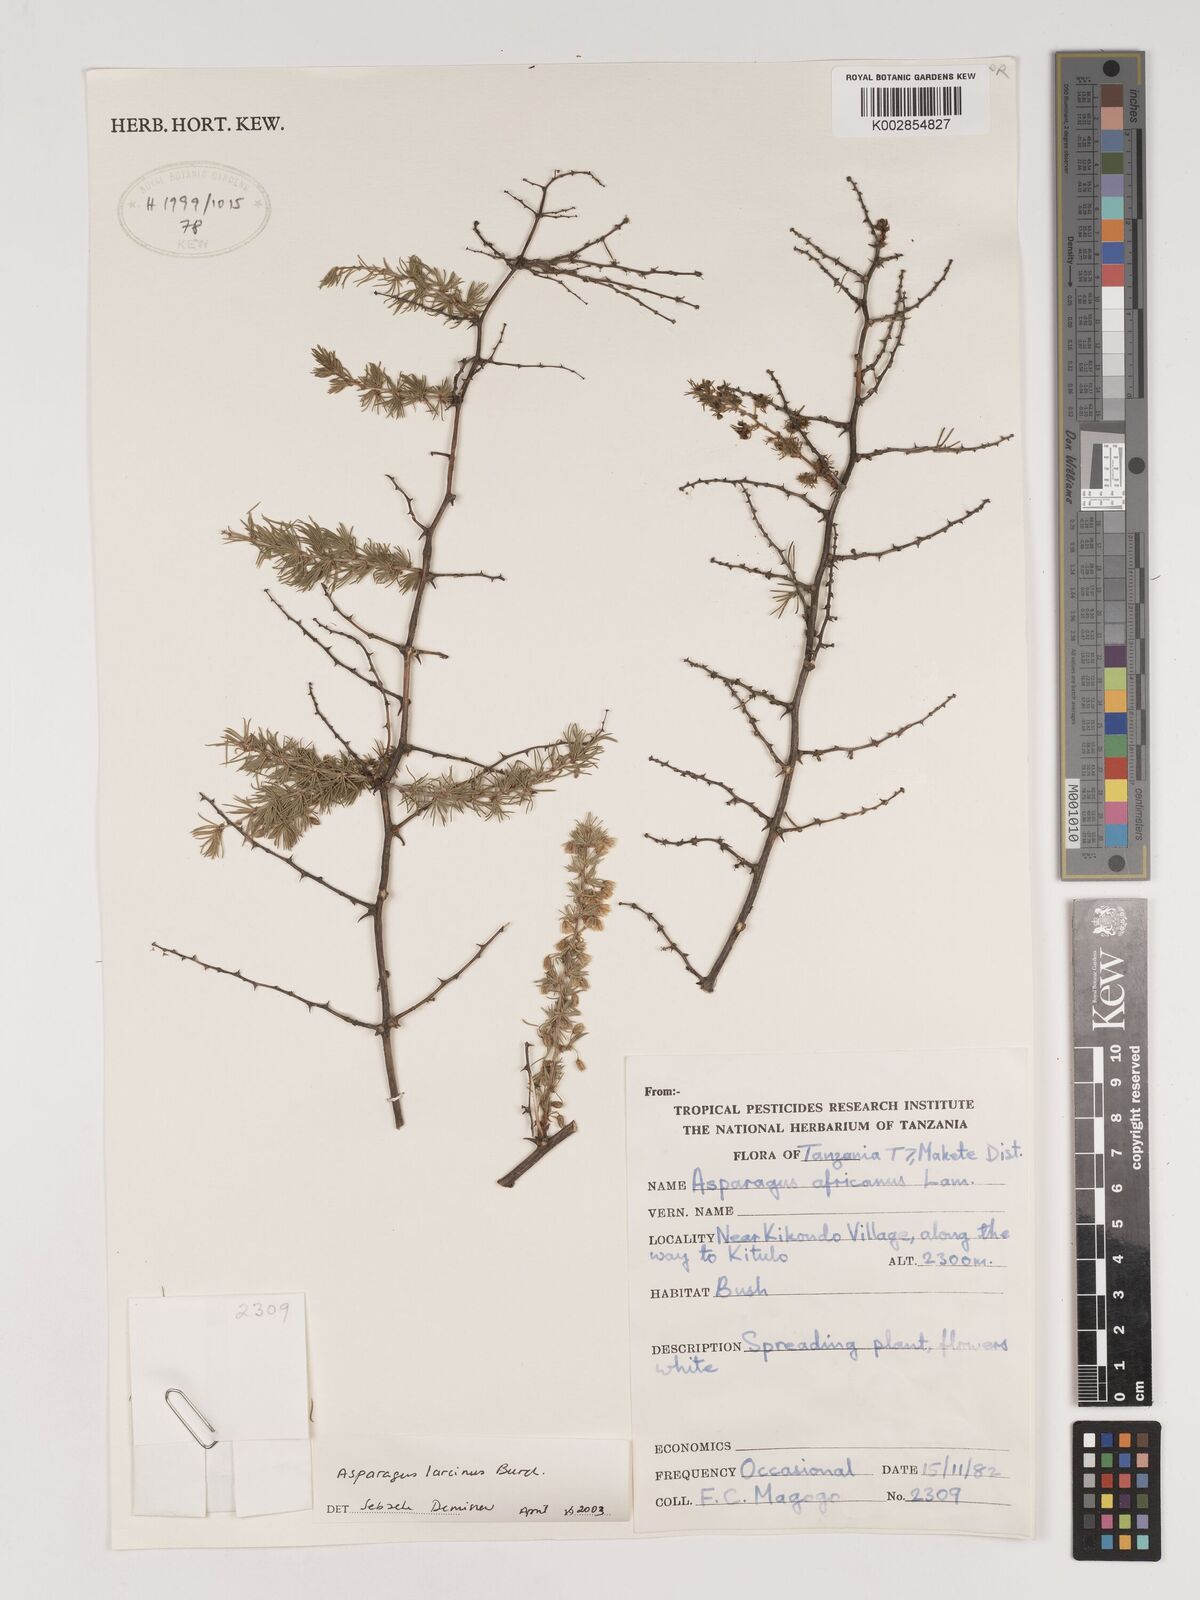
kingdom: Plantae
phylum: Tracheophyta
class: Liliopsida
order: Asparagales
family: Asparagaceae
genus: Asparagus
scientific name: Asparagus laricinus
